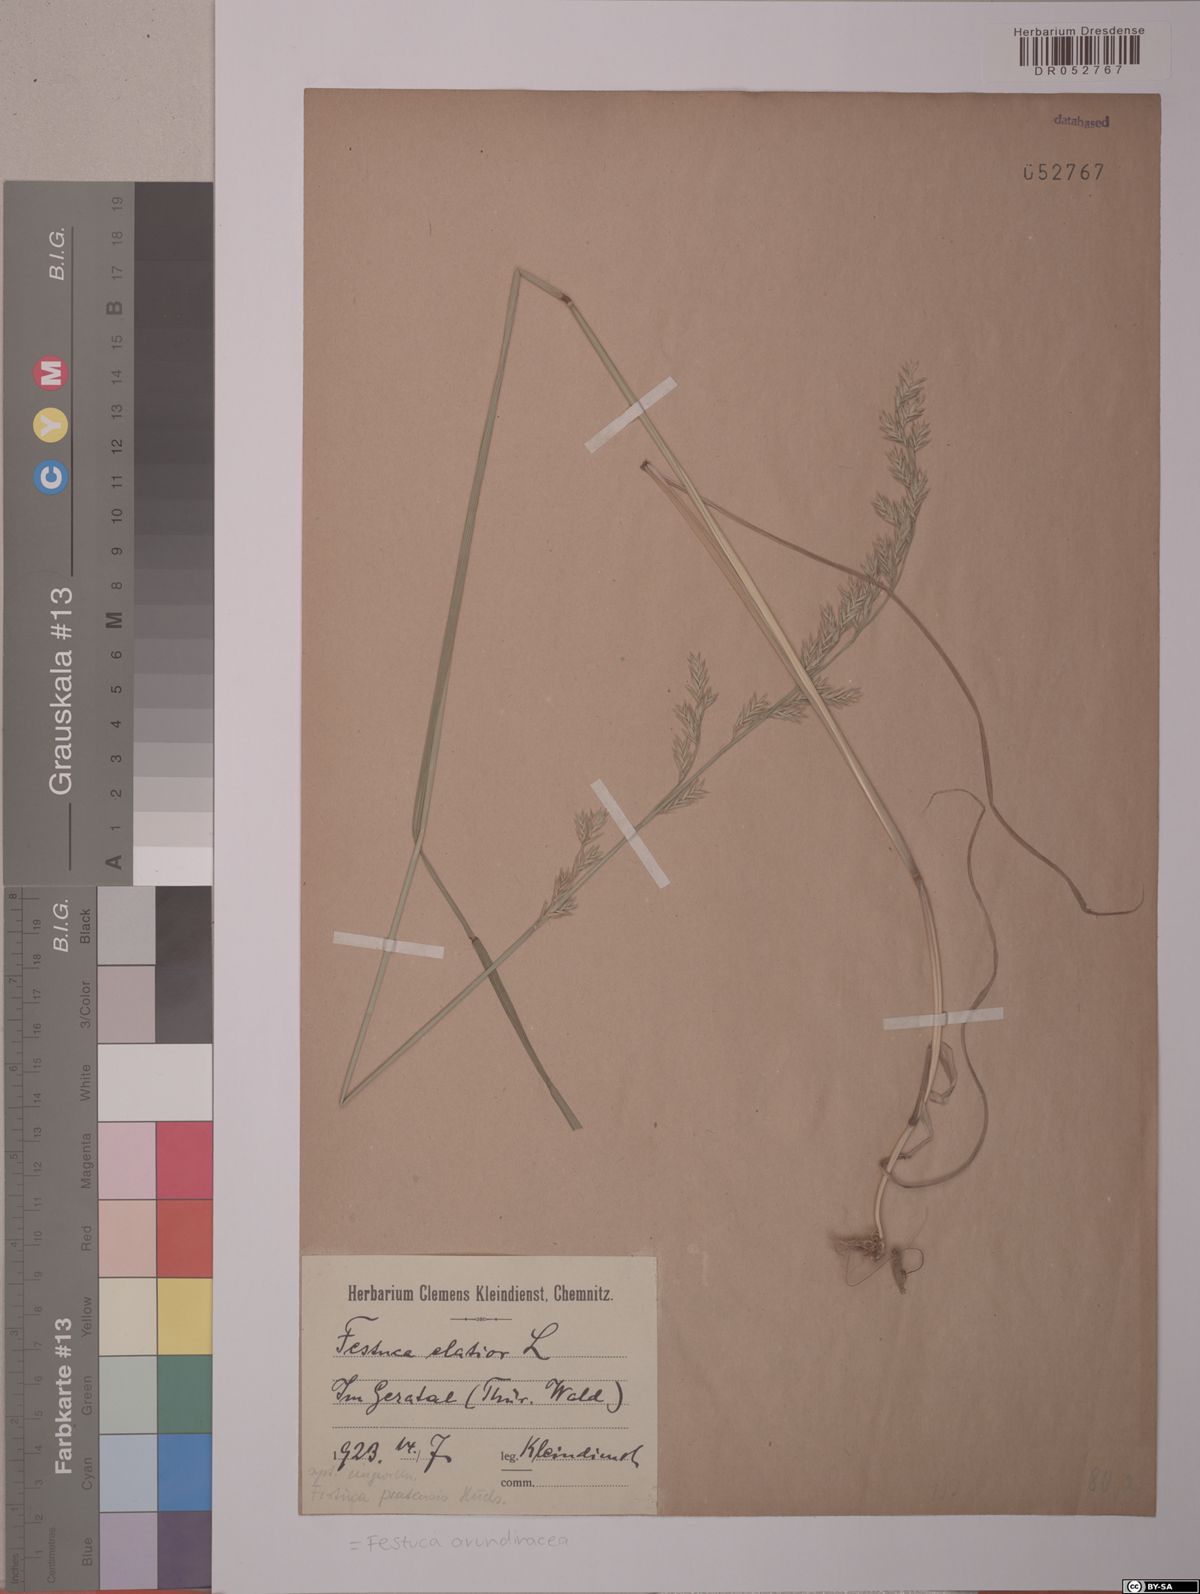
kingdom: Plantae
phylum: Tracheophyta
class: Liliopsida
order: Poales
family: Poaceae
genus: Lolium
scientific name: Lolium arundinaceum
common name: Reed fescue
